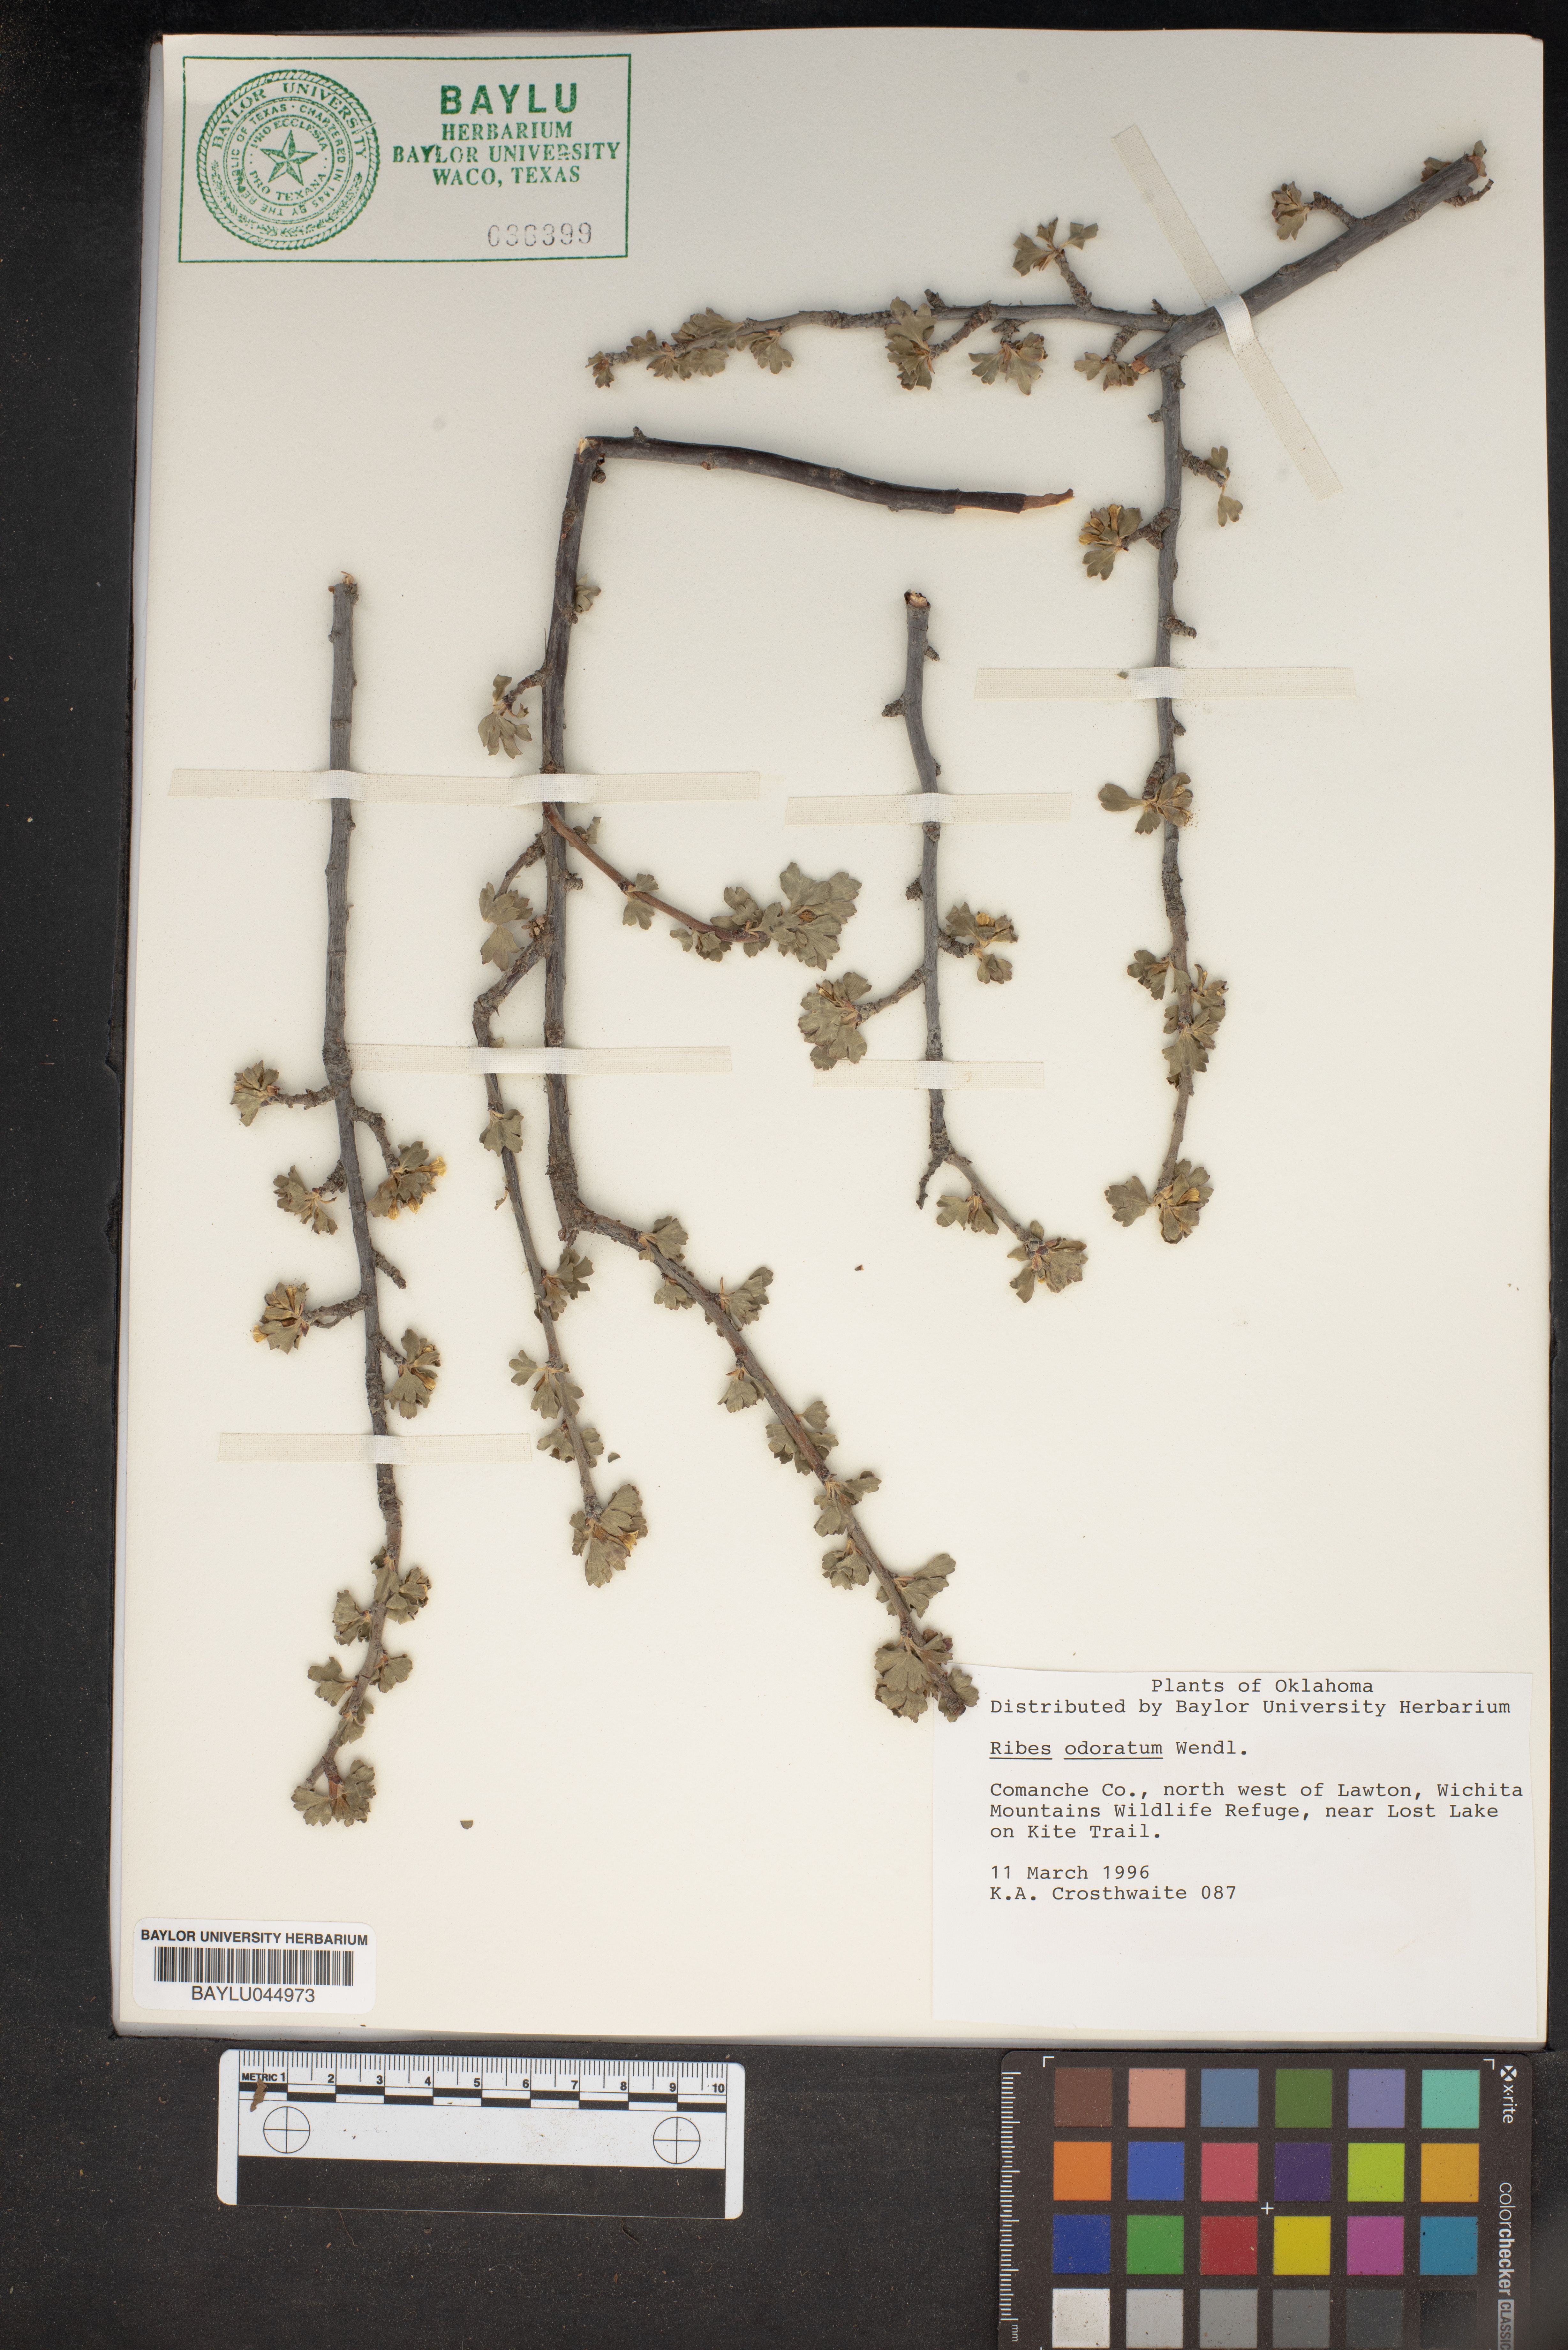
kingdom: Plantae
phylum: Tracheophyta
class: Magnoliopsida
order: Saxifragales
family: Grossulariaceae
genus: Ribes
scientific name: Ribes aureum
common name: Golden currant
